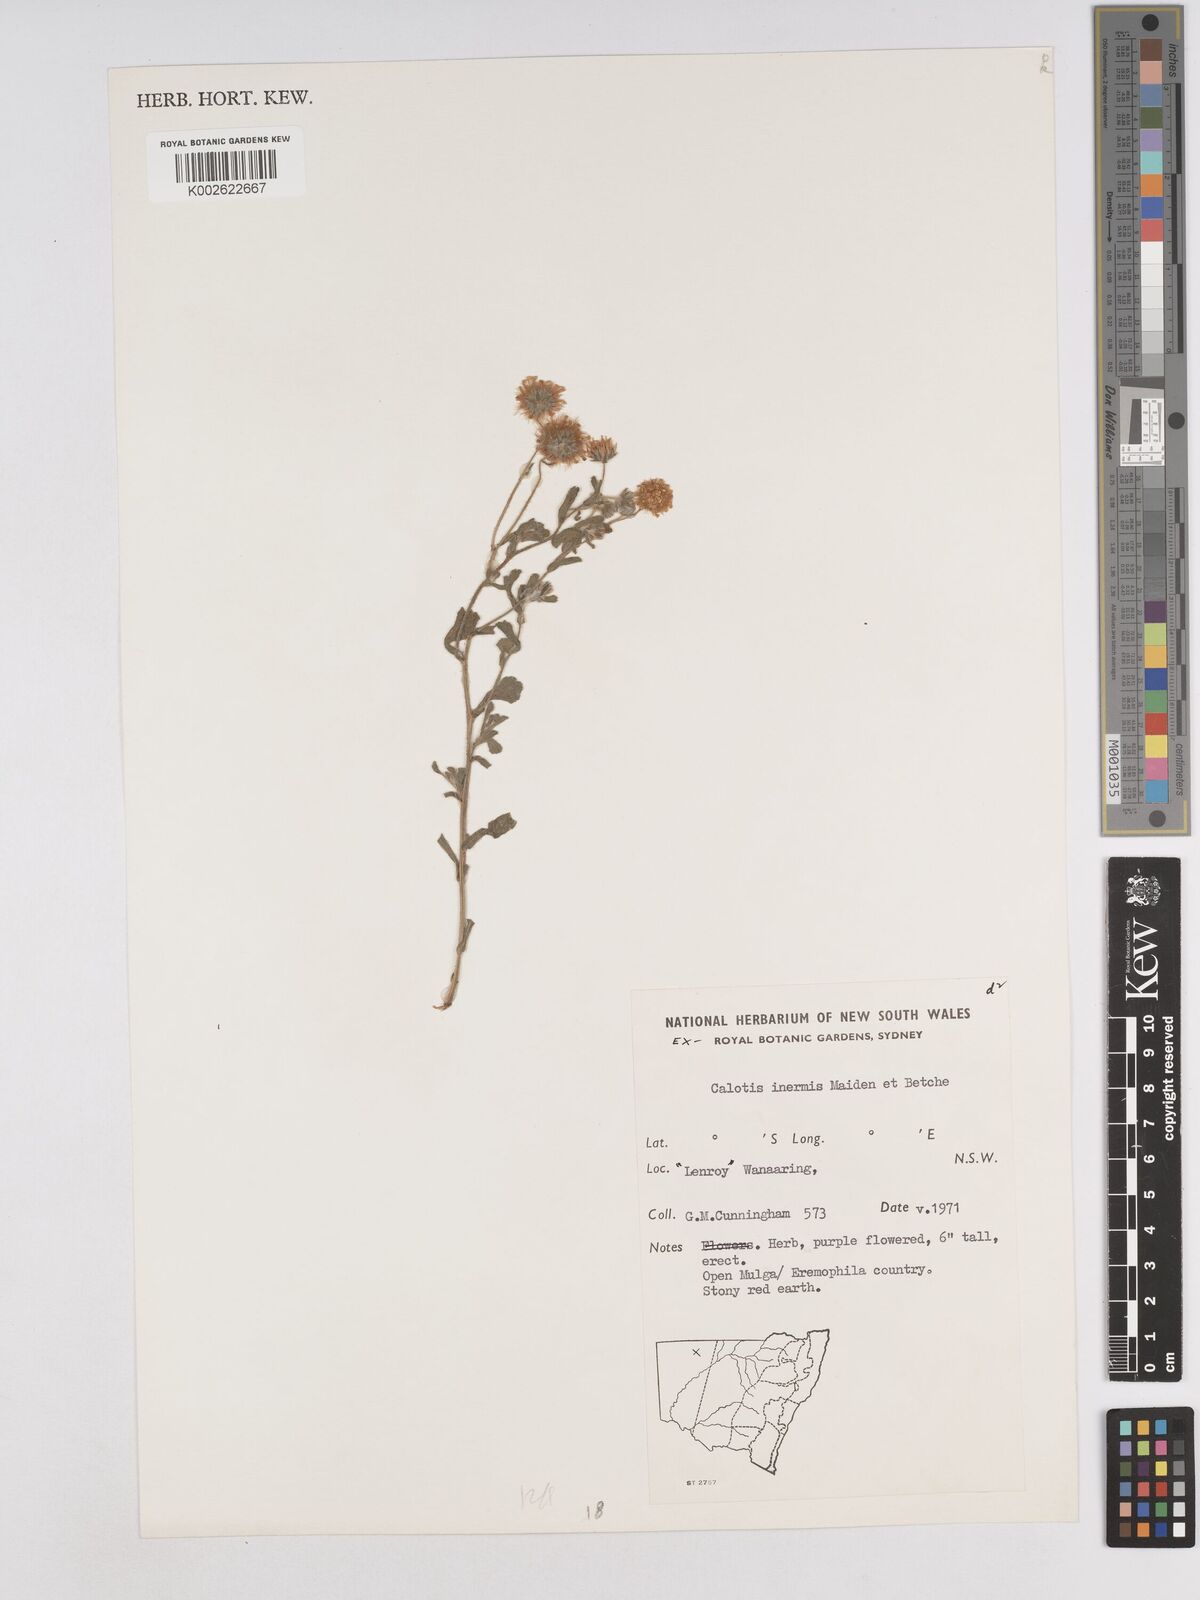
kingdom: Plantae
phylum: Tracheophyta
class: Magnoliopsida
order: Asterales
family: Asteraceae
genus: Calotis
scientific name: Calotis inermis
